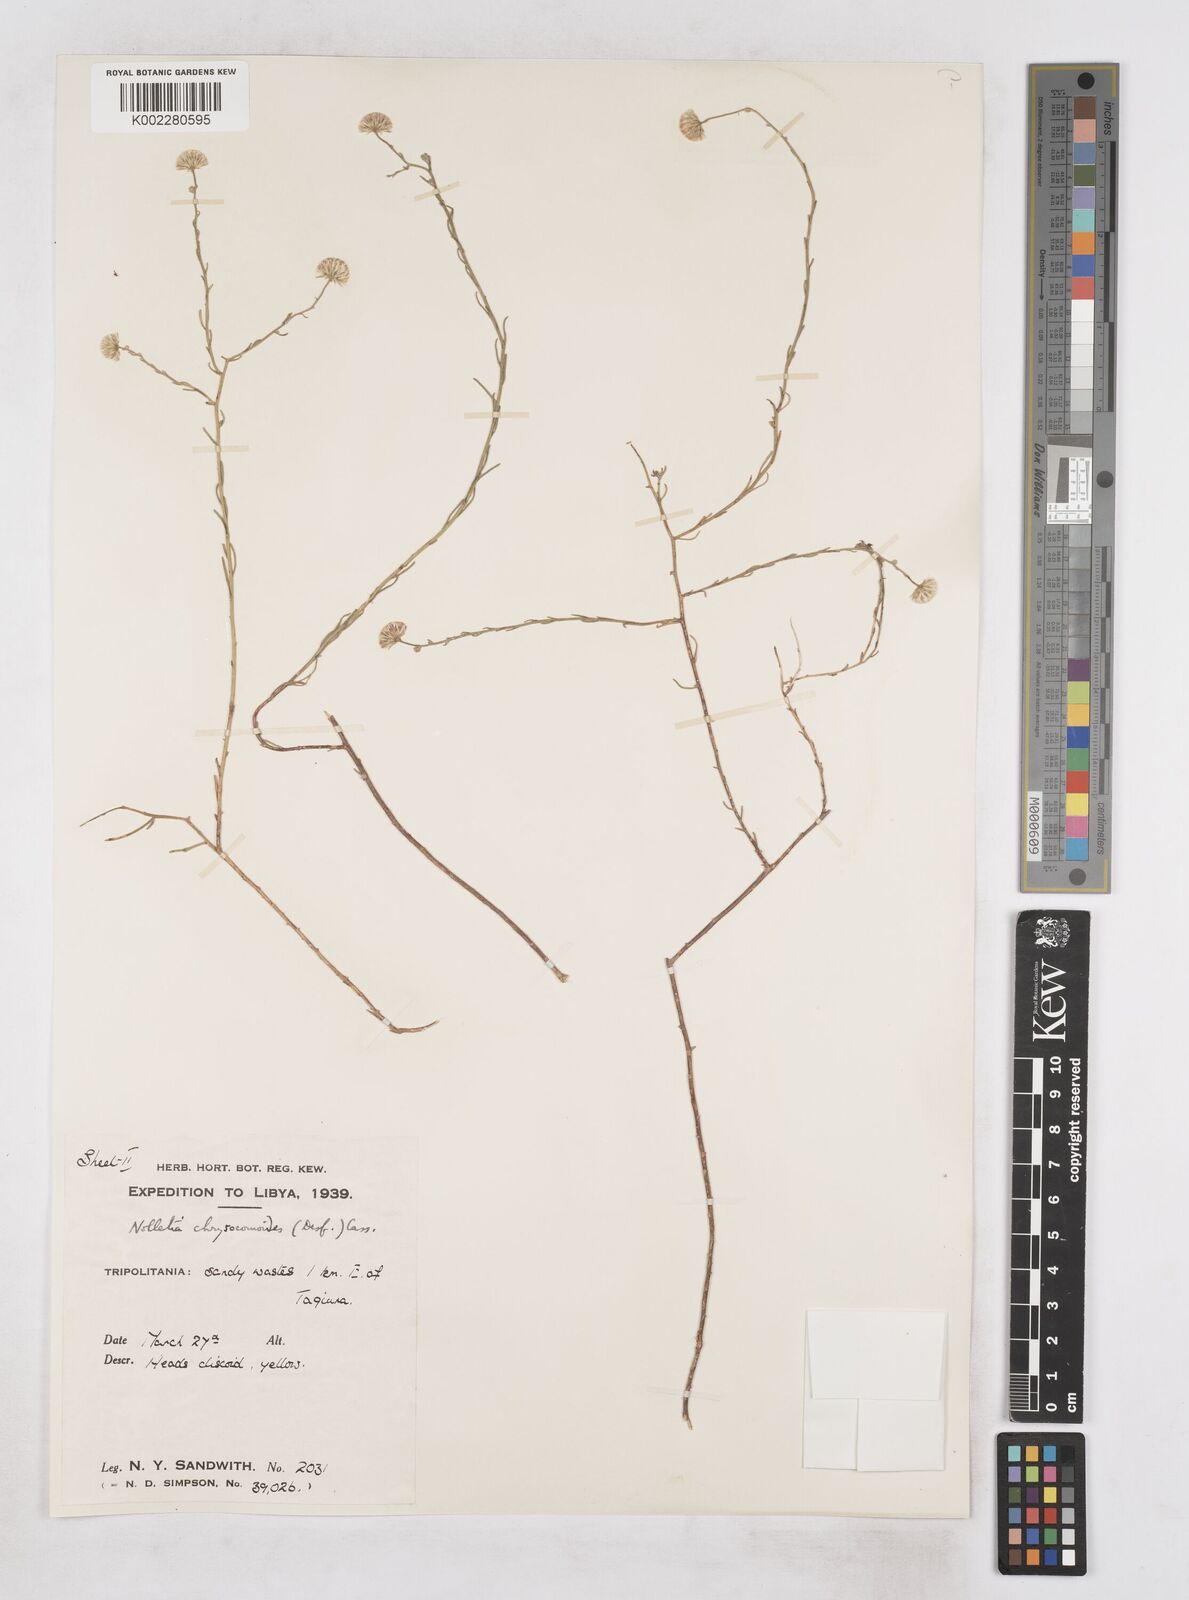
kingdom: Plantae
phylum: Tracheophyta
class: Magnoliopsida
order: Asterales
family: Asteraceae
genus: Nolletia
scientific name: Nolletia chrysocomoides
